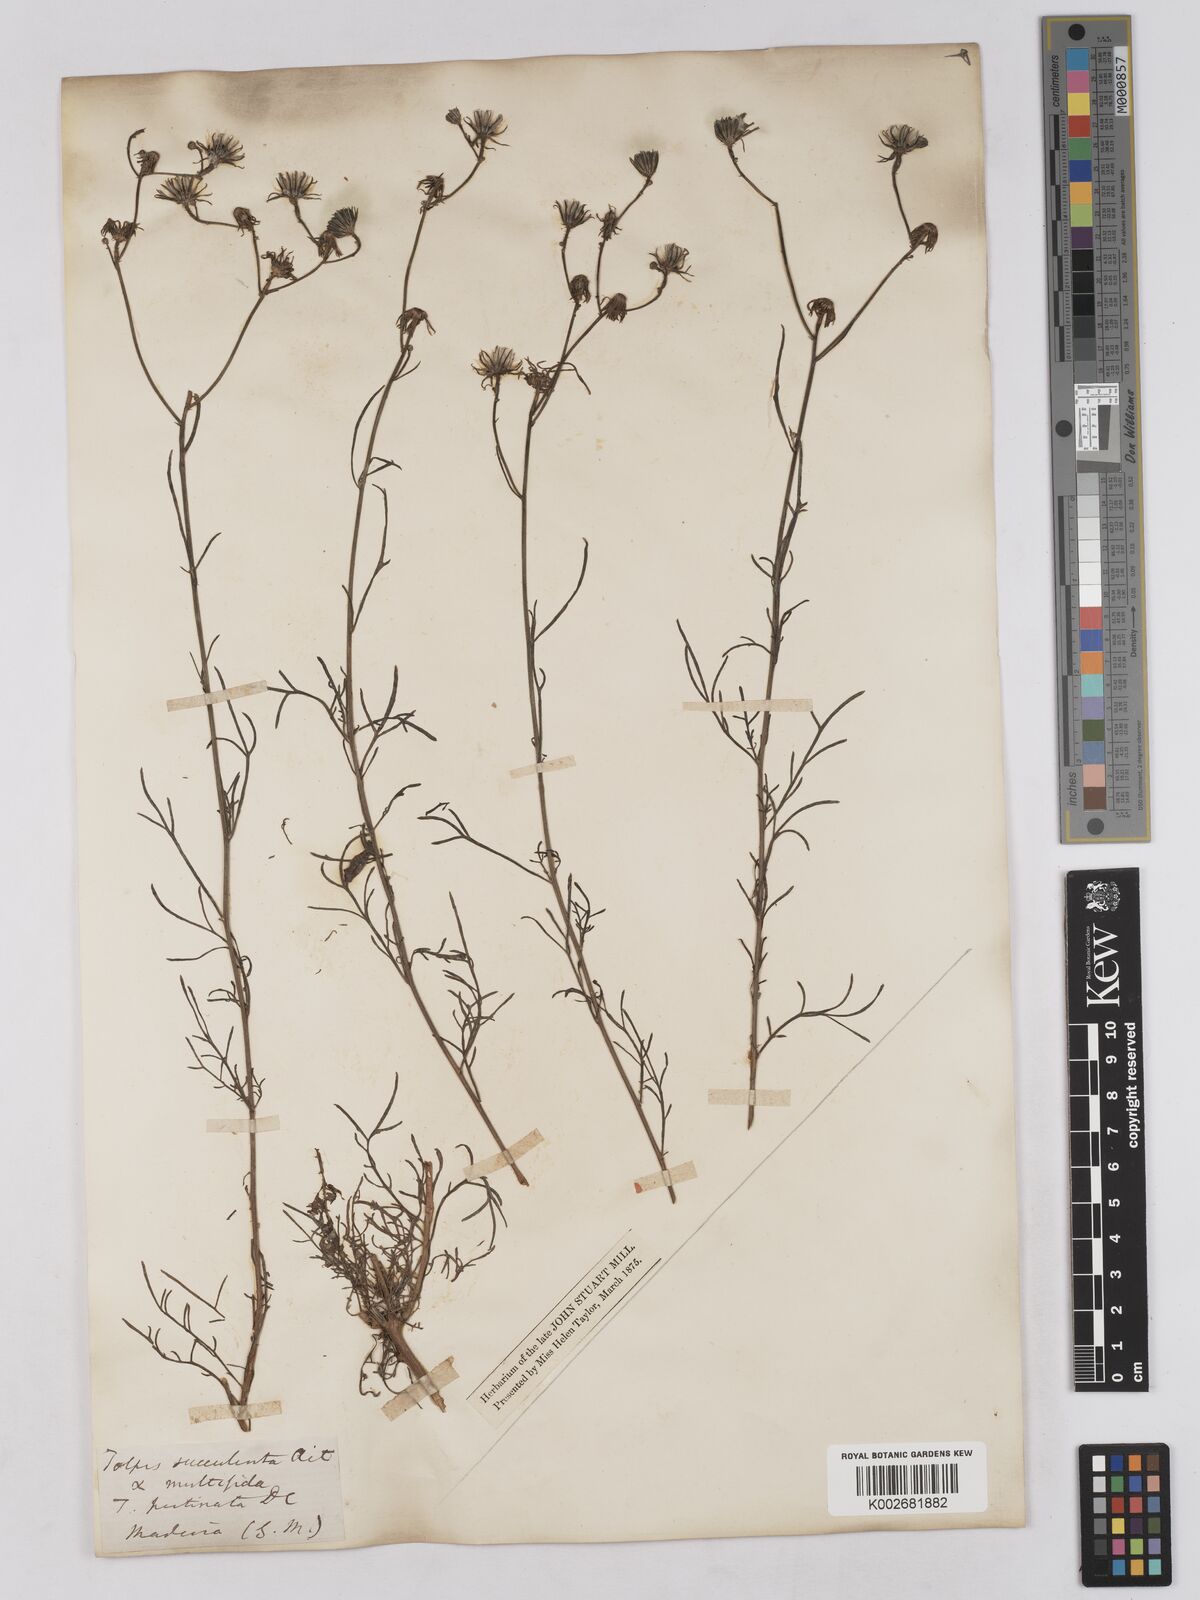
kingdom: Plantae
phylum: Tracheophyta
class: Magnoliopsida
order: Asterales
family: Asteraceae
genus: Tolpis
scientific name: Tolpis
